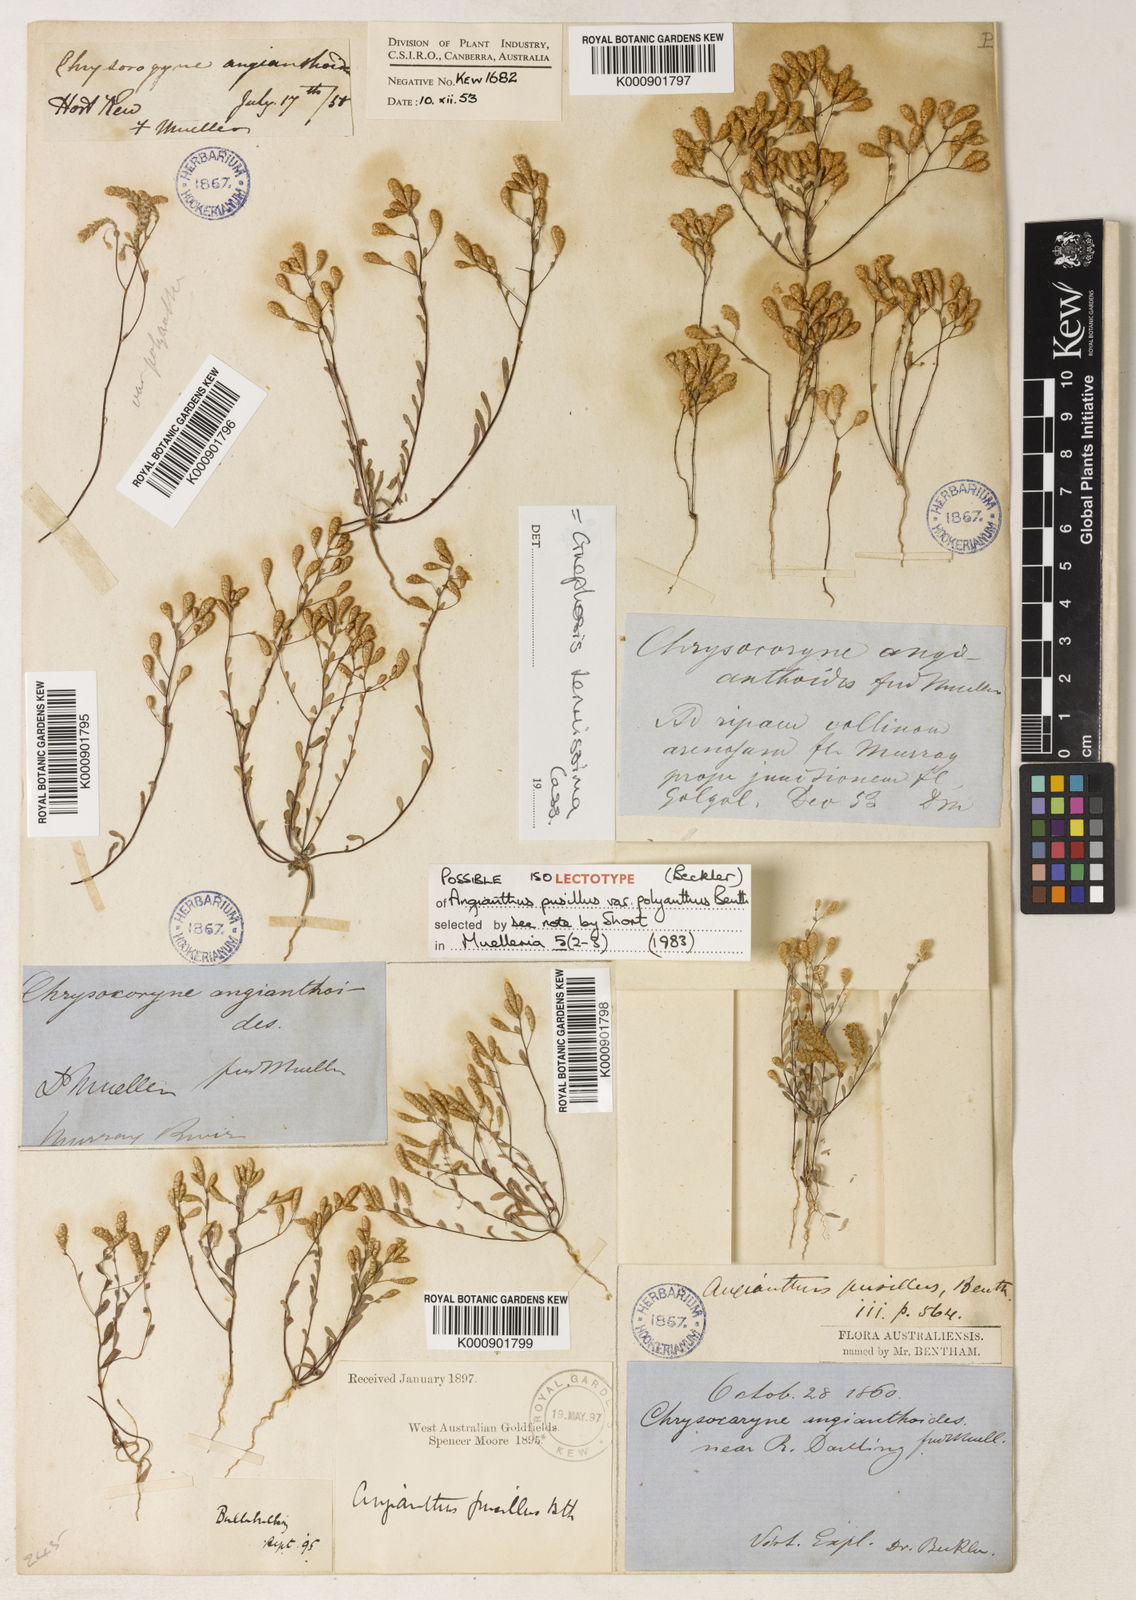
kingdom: Plantae
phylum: Tracheophyta
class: Magnoliopsida
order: Asterales
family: Asteraceae
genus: Gnephosis
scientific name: Gnephosis tenuissima
